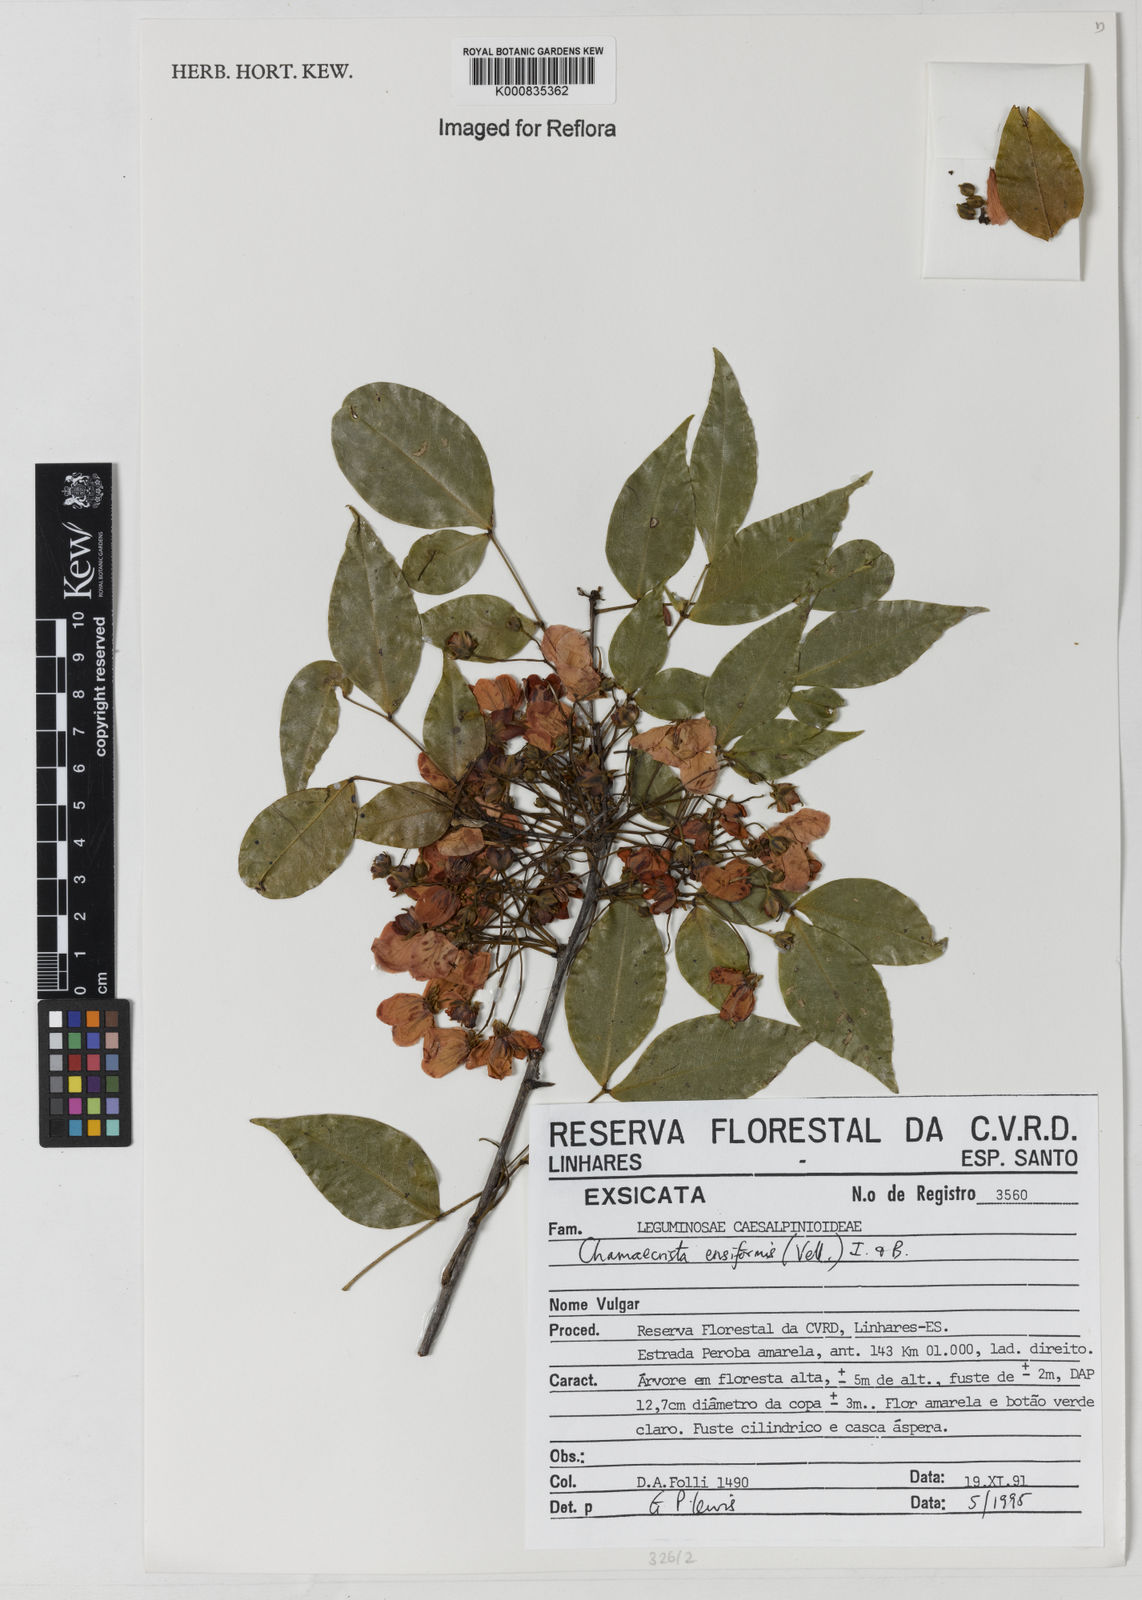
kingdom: Plantae
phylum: Tracheophyta
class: Magnoliopsida
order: Fabales
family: Fabaceae
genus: Chamaecrista
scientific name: Chamaecrista ensiformis
